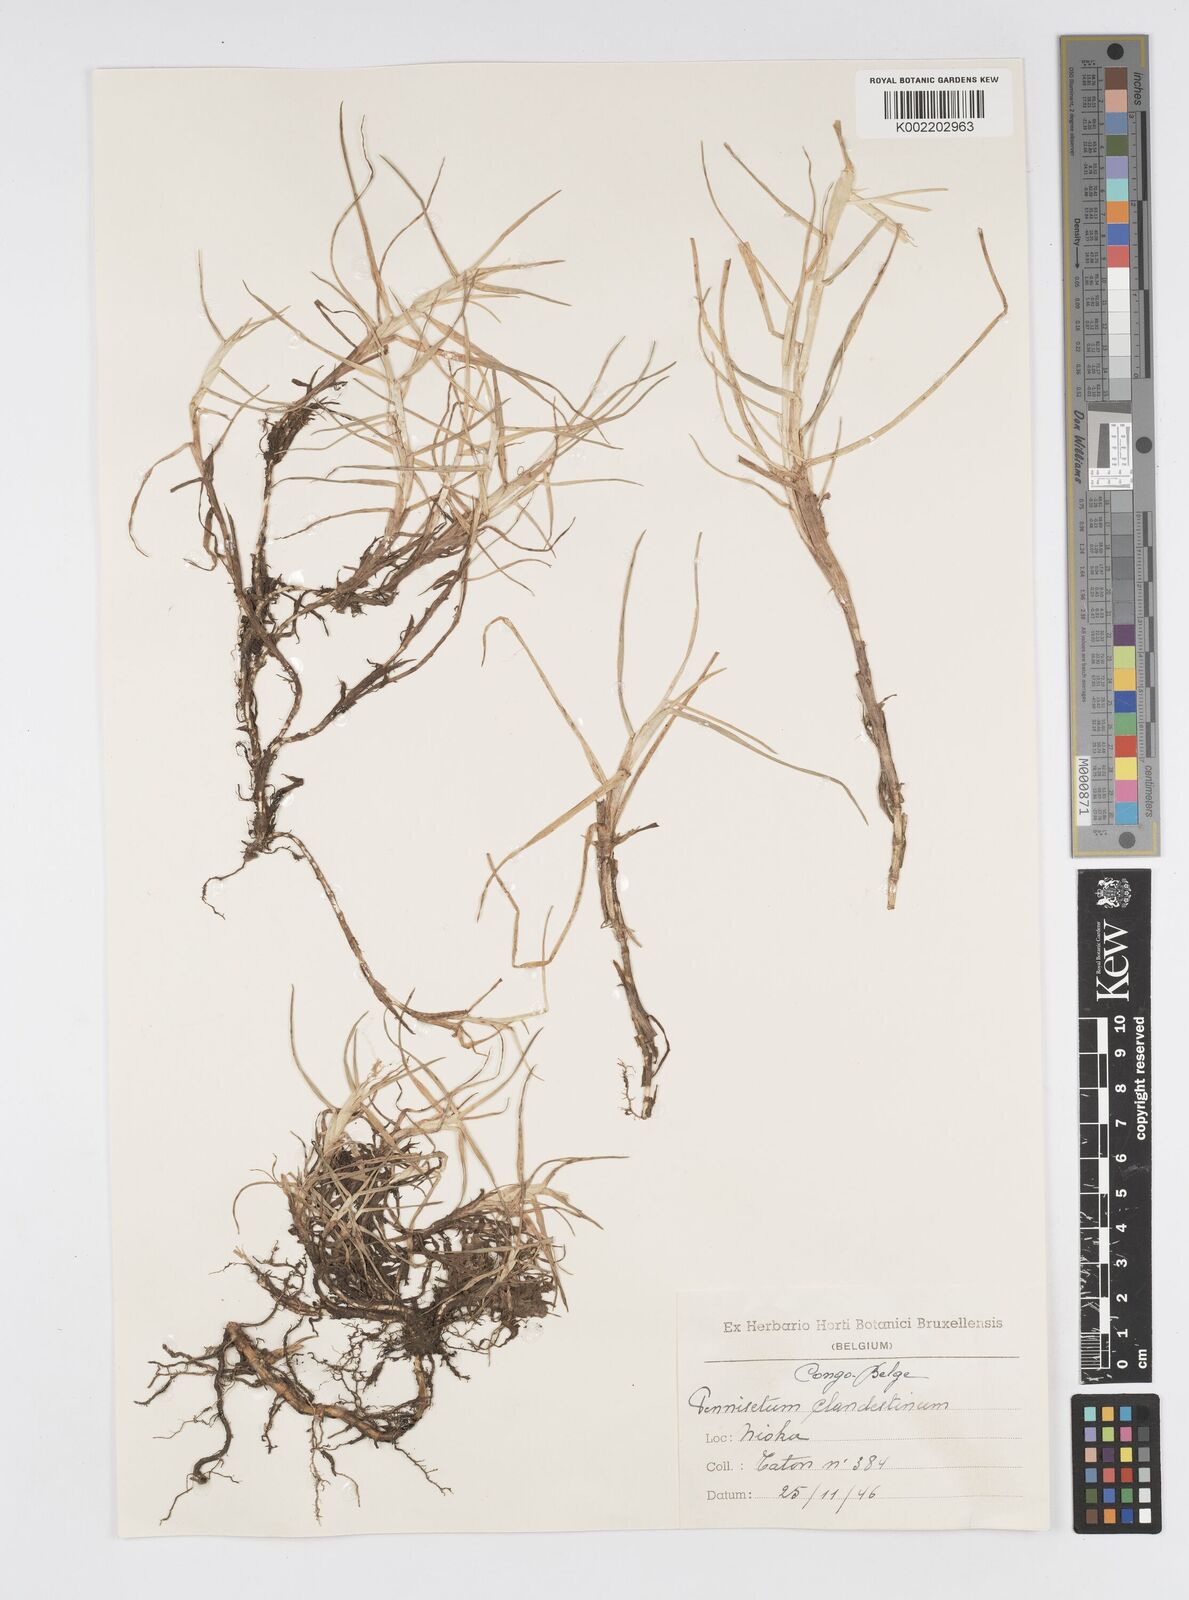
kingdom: Plantae
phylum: Tracheophyta
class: Liliopsida
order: Poales
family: Poaceae
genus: Cenchrus
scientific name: Cenchrus clandestinus
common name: Kikuyugrass
